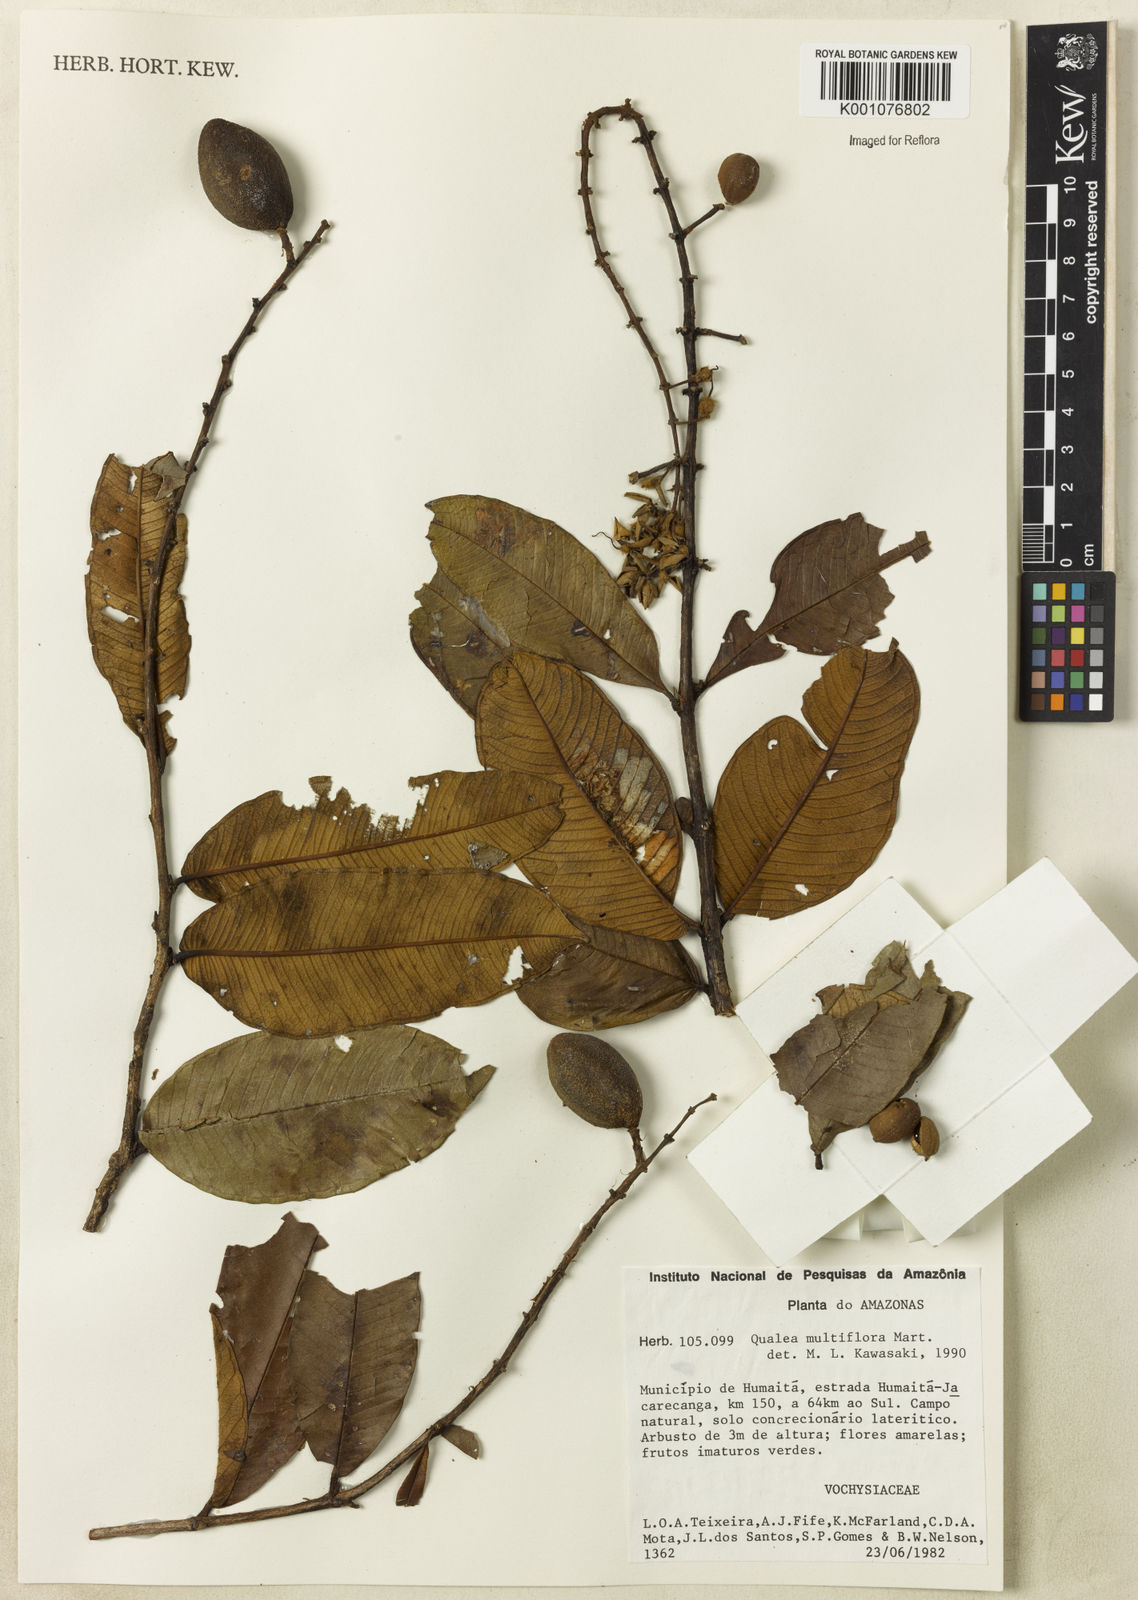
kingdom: Plantae
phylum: Tracheophyta
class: Magnoliopsida
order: Myrtales
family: Vochysiaceae
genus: Qualea
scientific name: Qualea multiflora
